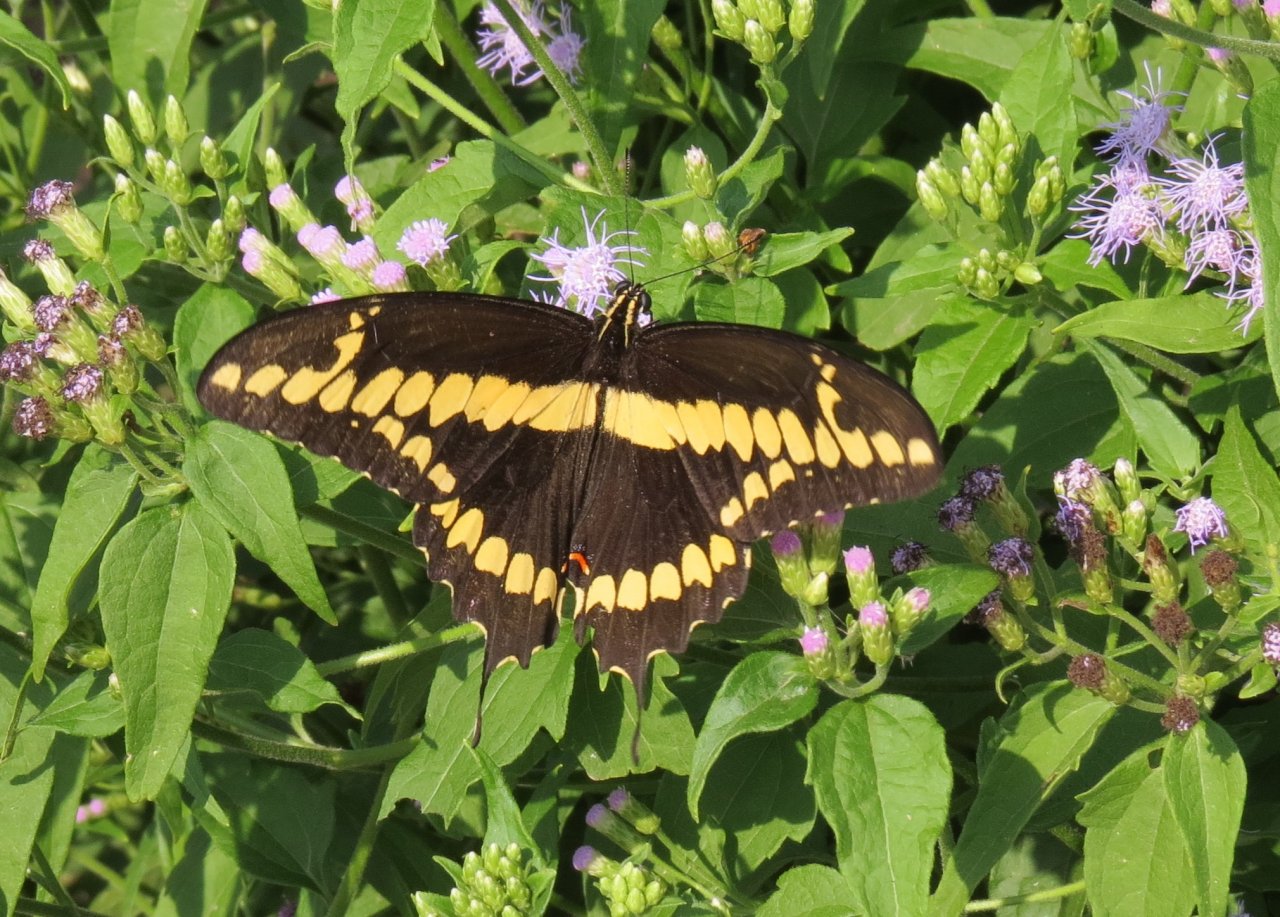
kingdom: Animalia
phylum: Arthropoda
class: Insecta
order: Lepidoptera
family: Papilionidae
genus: Papilio
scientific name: Papilio rumiko
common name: Western Giant Swallowtail
